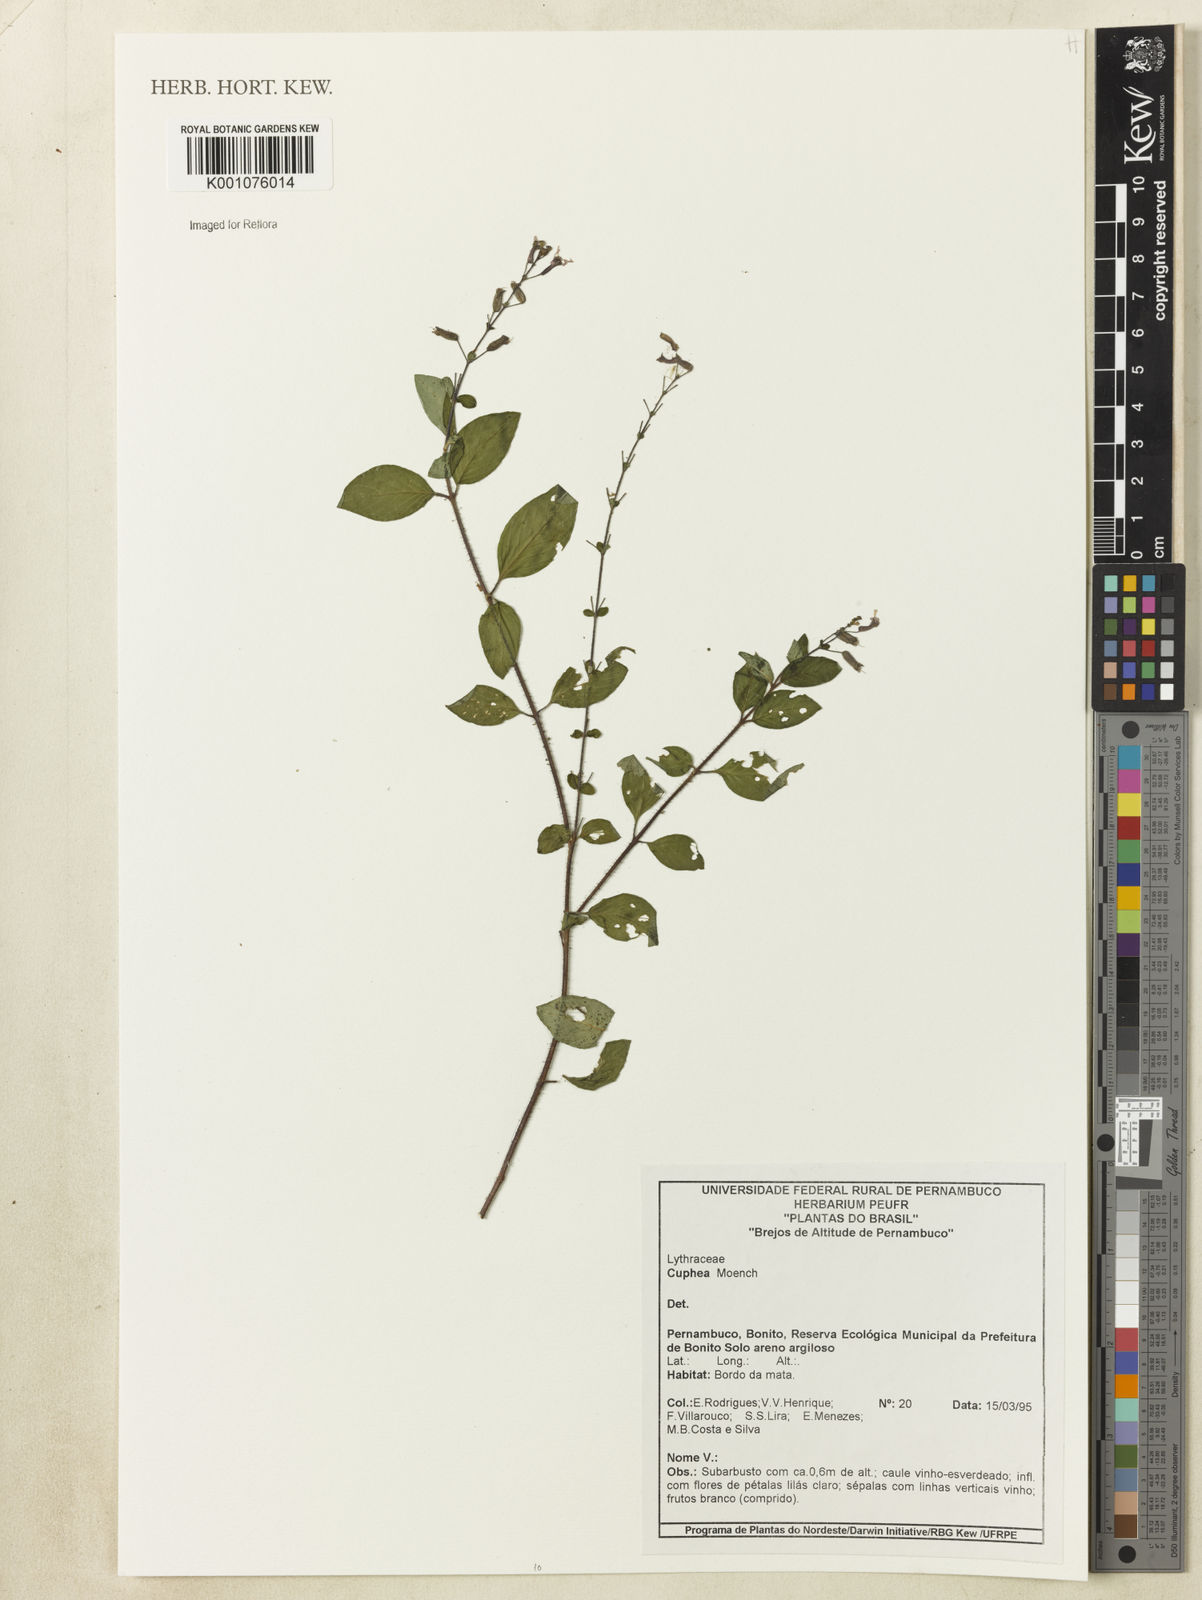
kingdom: Plantae
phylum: Tracheophyta
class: Magnoliopsida
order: Myrtales
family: Lythraceae
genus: Cuphea
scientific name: Cuphea
